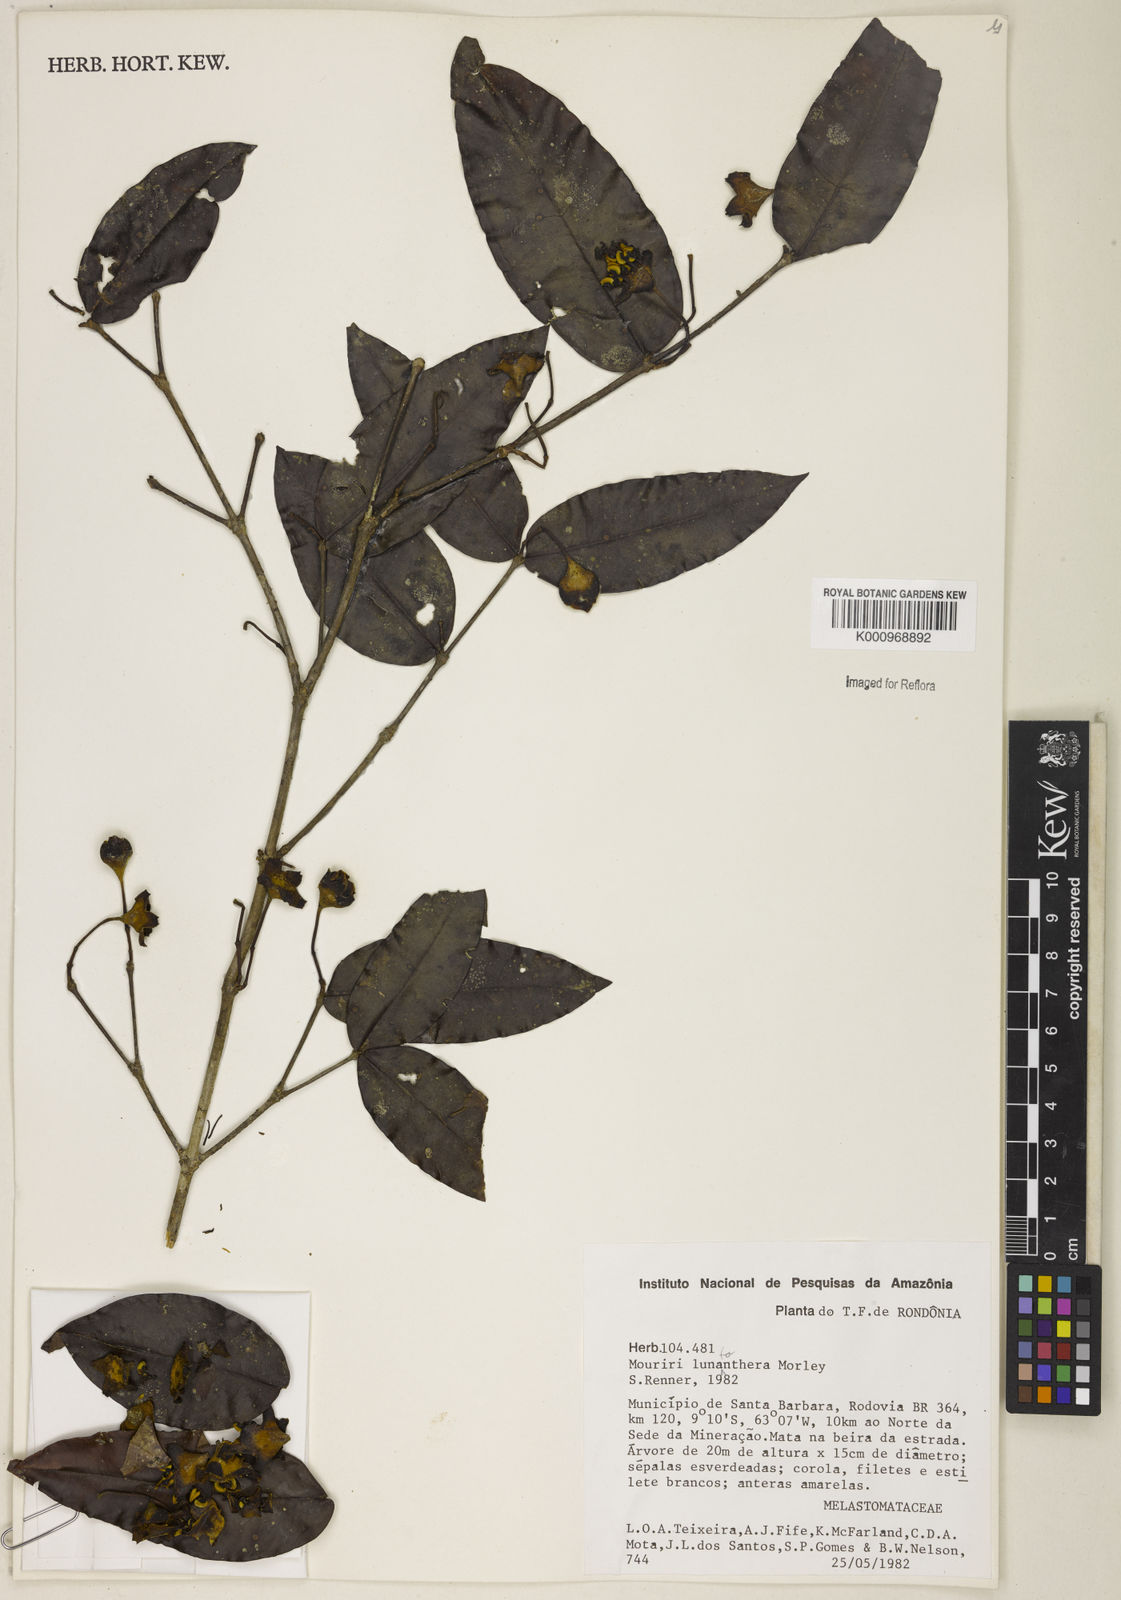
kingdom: Plantae
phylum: Tracheophyta
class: Magnoliopsida
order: Myrtales
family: Melastomataceae
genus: Mouriri
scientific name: Mouriri
